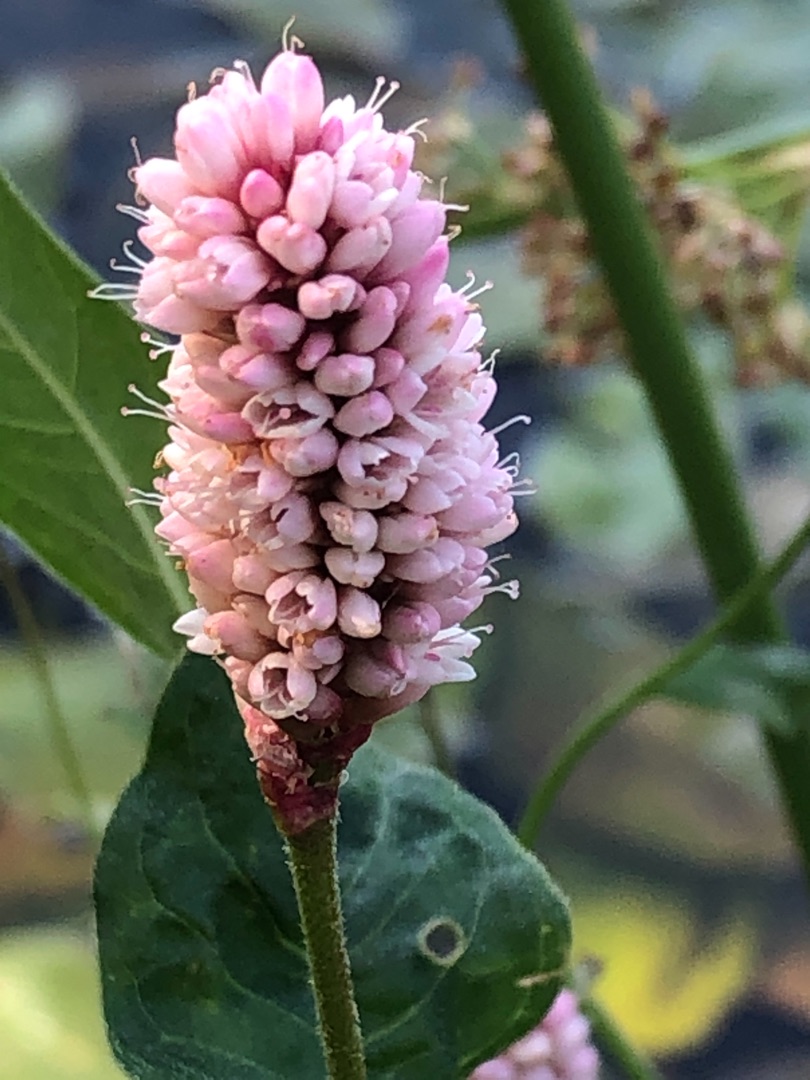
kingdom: Plantae
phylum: Tracheophyta
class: Magnoliopsida
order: Caryophyllales
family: Polygonaceae
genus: Persicaria
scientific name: Persicaria amphibia
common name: Vand-pileurt
